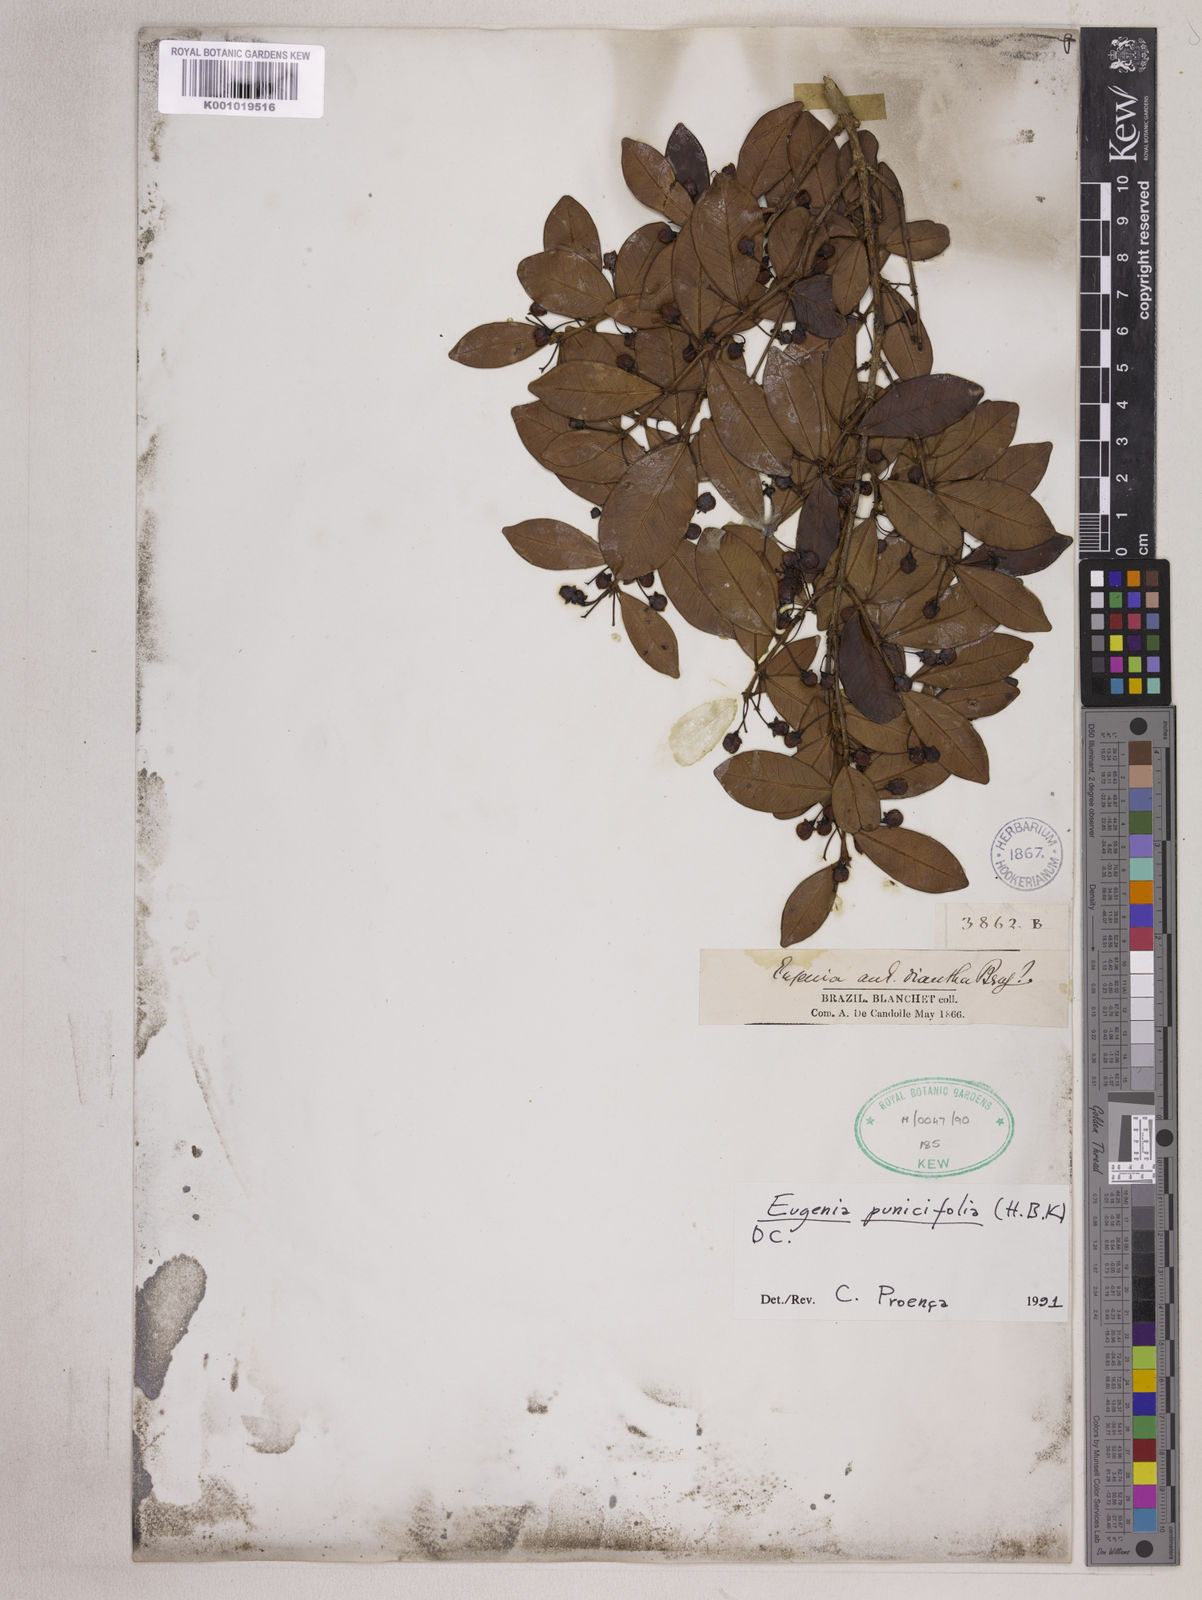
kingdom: Plantae
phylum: Tracheophyta
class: Magnoliopsida
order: Myrtales
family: Myrtaceae
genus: Eugenia
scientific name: Eugenia punicifolia
